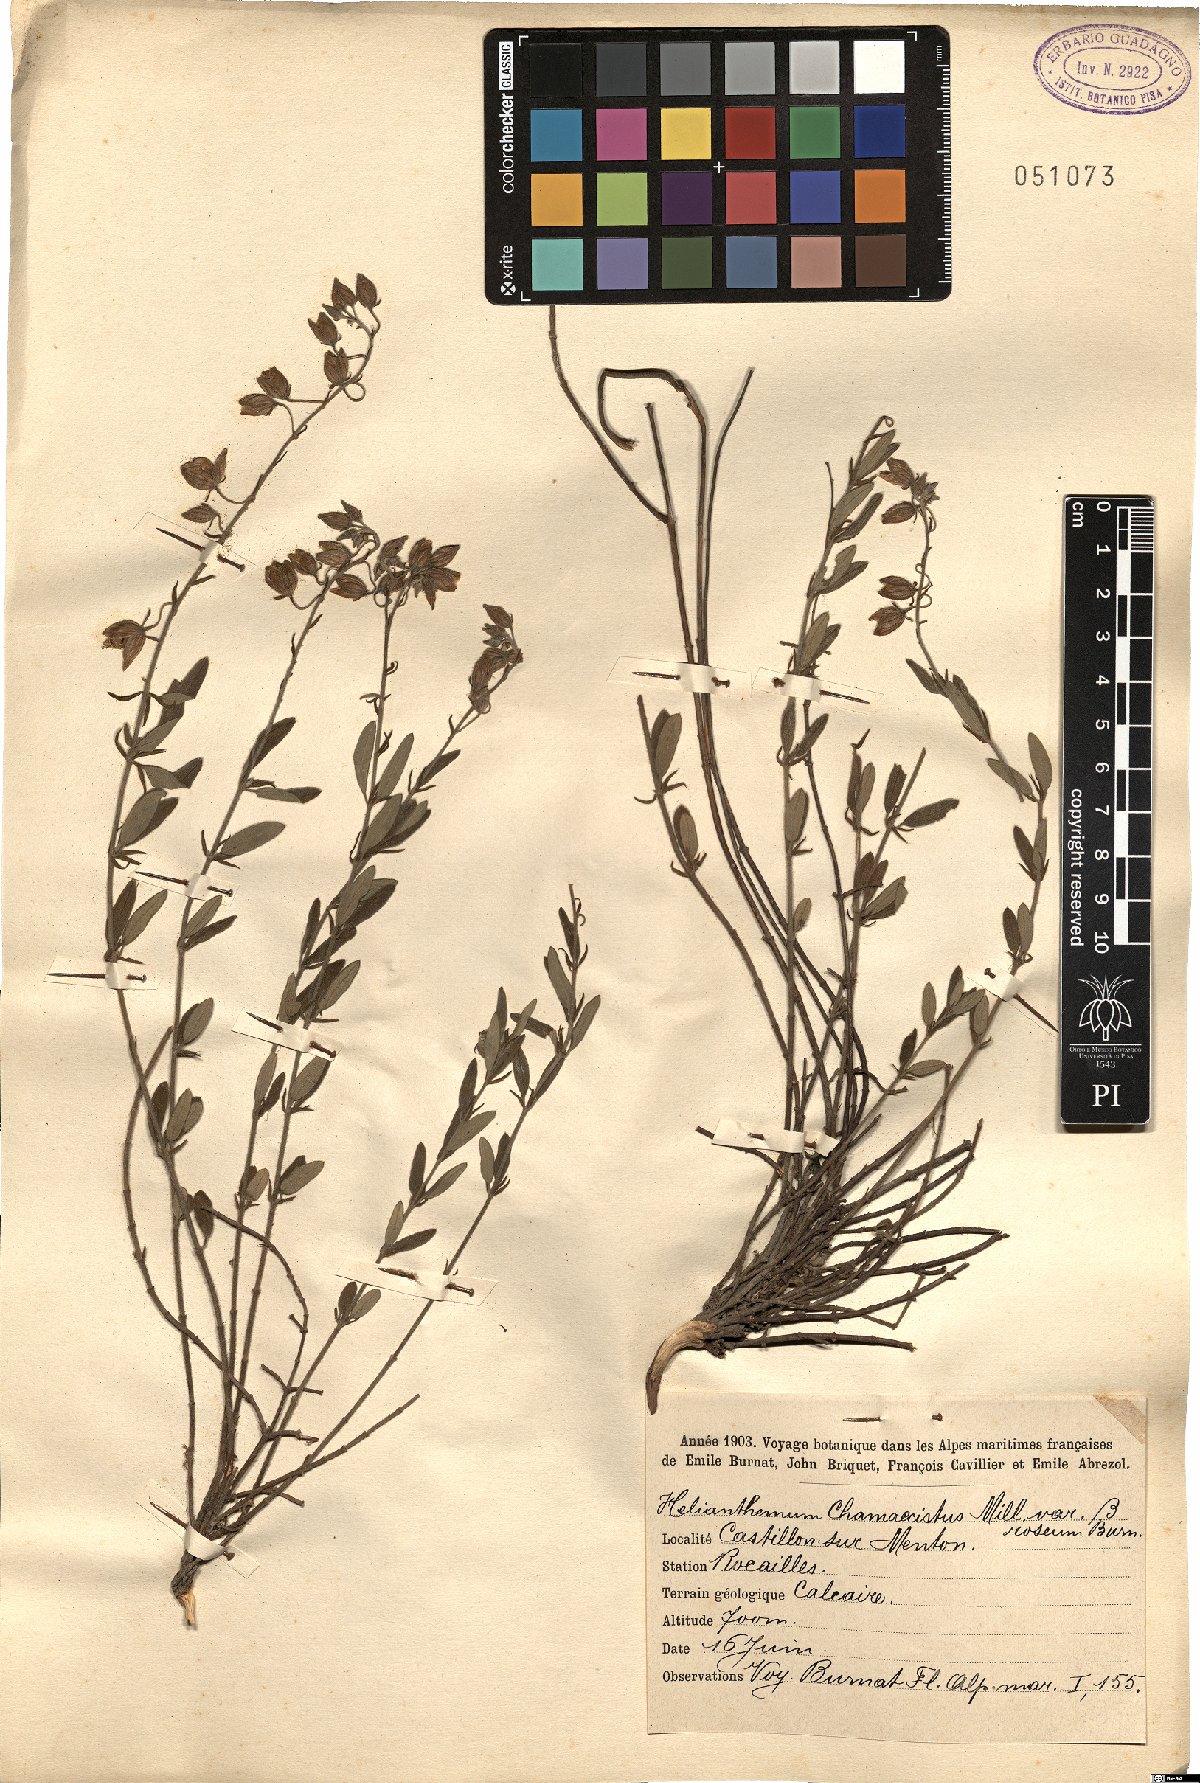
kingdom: Plantae
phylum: Tracheophyta
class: Magnoliopsida
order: Malvales
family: Cistaceae
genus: Helianthemum
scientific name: Helianthemum nummularium
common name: Common rock-rose
